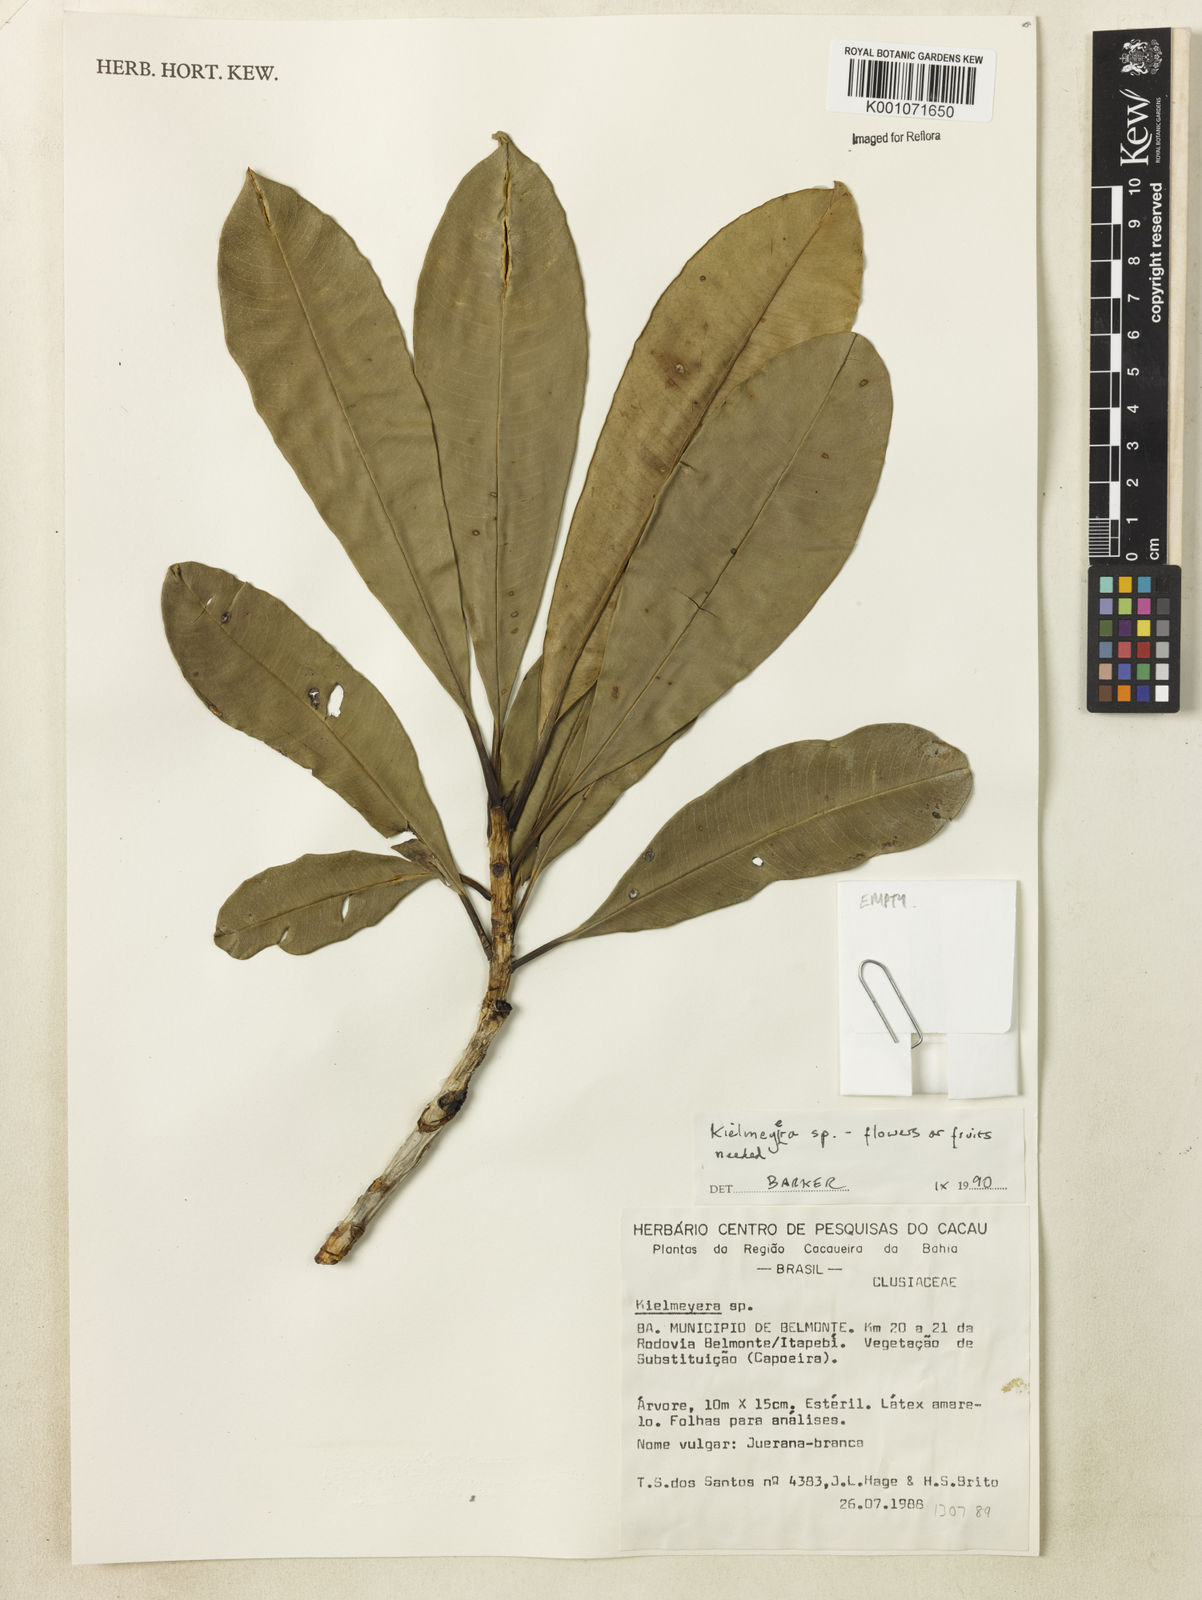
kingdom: Plantae
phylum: Tracheophyta
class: Magnoliopsida
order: Malpighiales
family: Calophyllaceae
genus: Kielmeyera
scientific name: Kielmeyera
